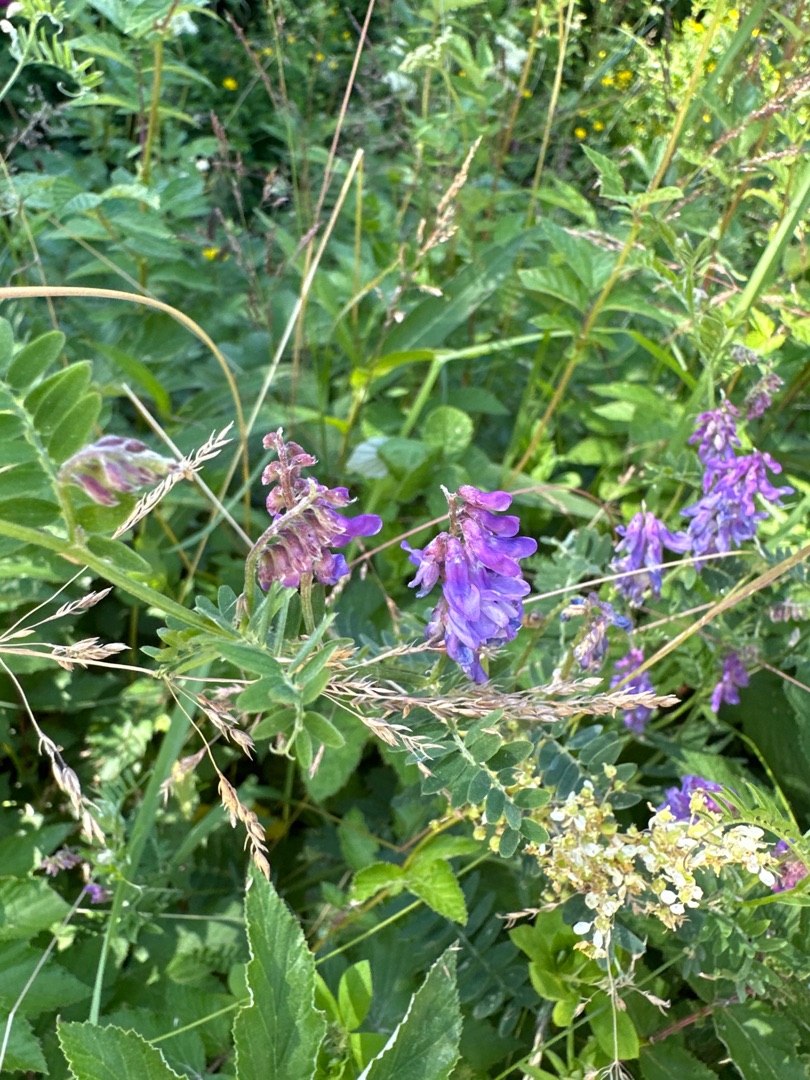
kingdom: Plantae
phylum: Tracheophyta
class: Magnoliopsida
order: Fabales
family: Fabaceae
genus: Vicia
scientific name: Vicia cracca
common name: Muse-vikke
